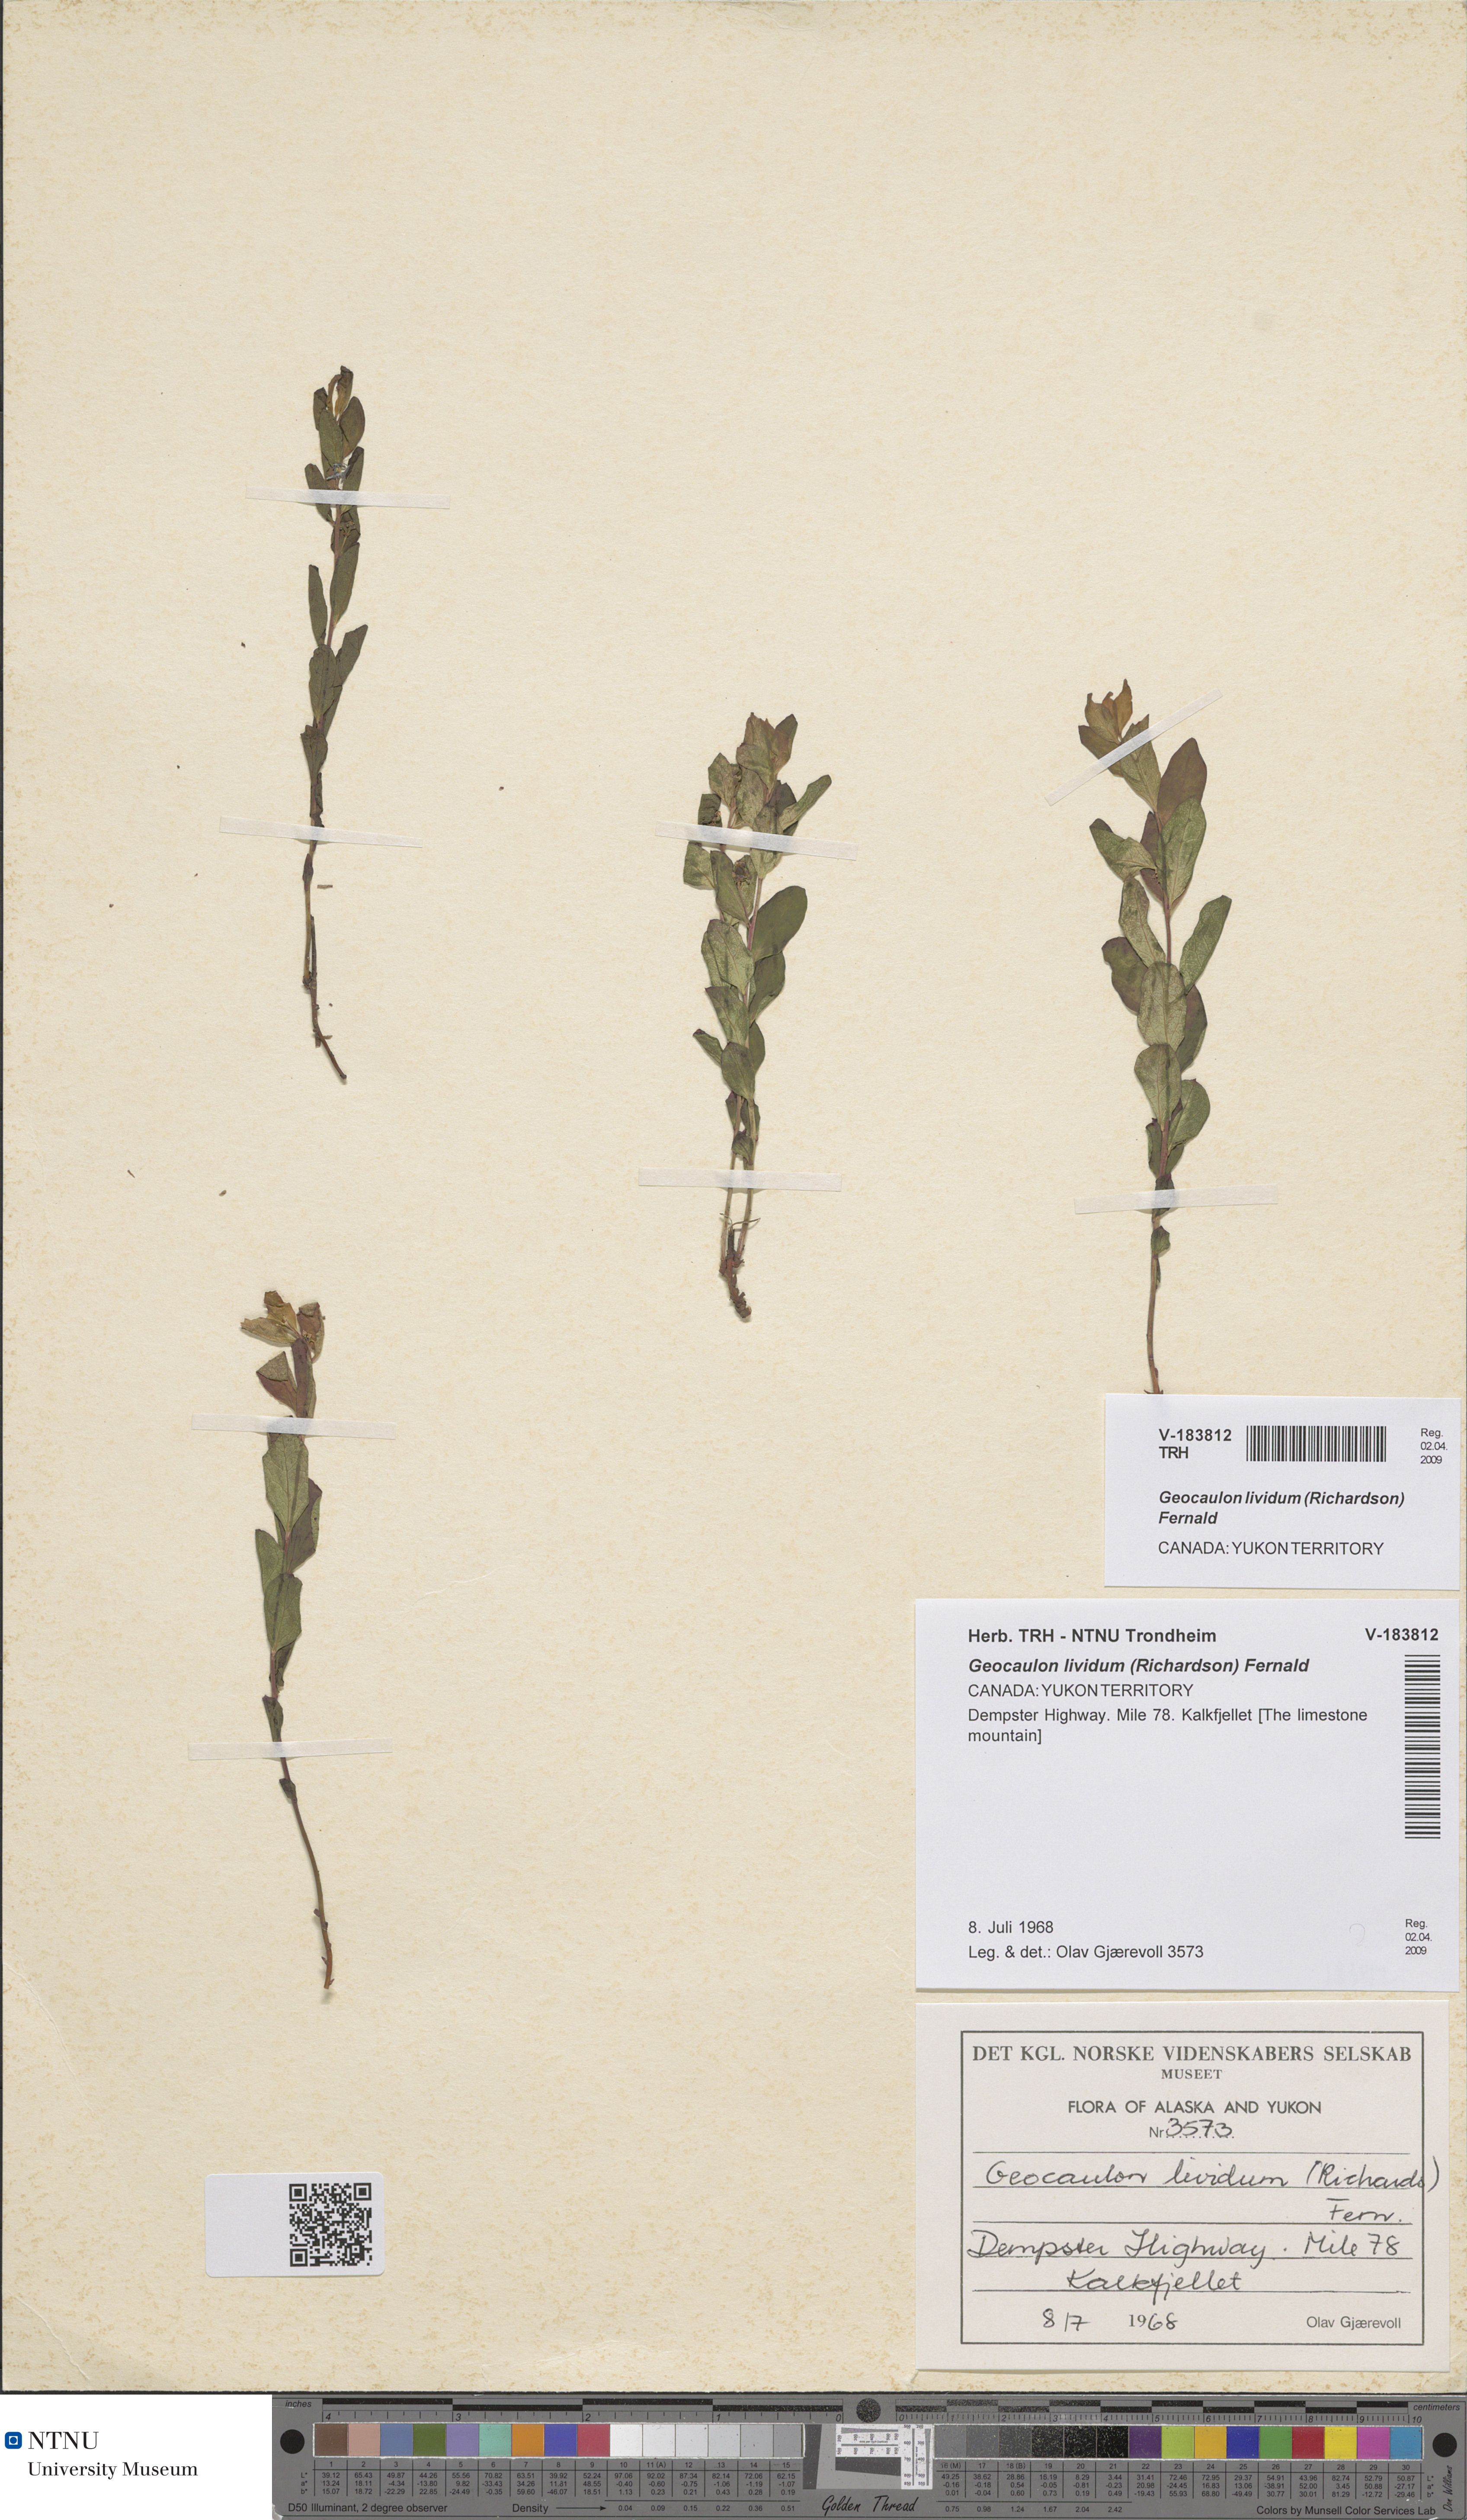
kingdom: Plantae
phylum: Tracheophyta
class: Magnoliopsida
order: Santalales
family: Comandraceae
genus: Geocaulon
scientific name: Geocaulon lividum
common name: Earthberry
